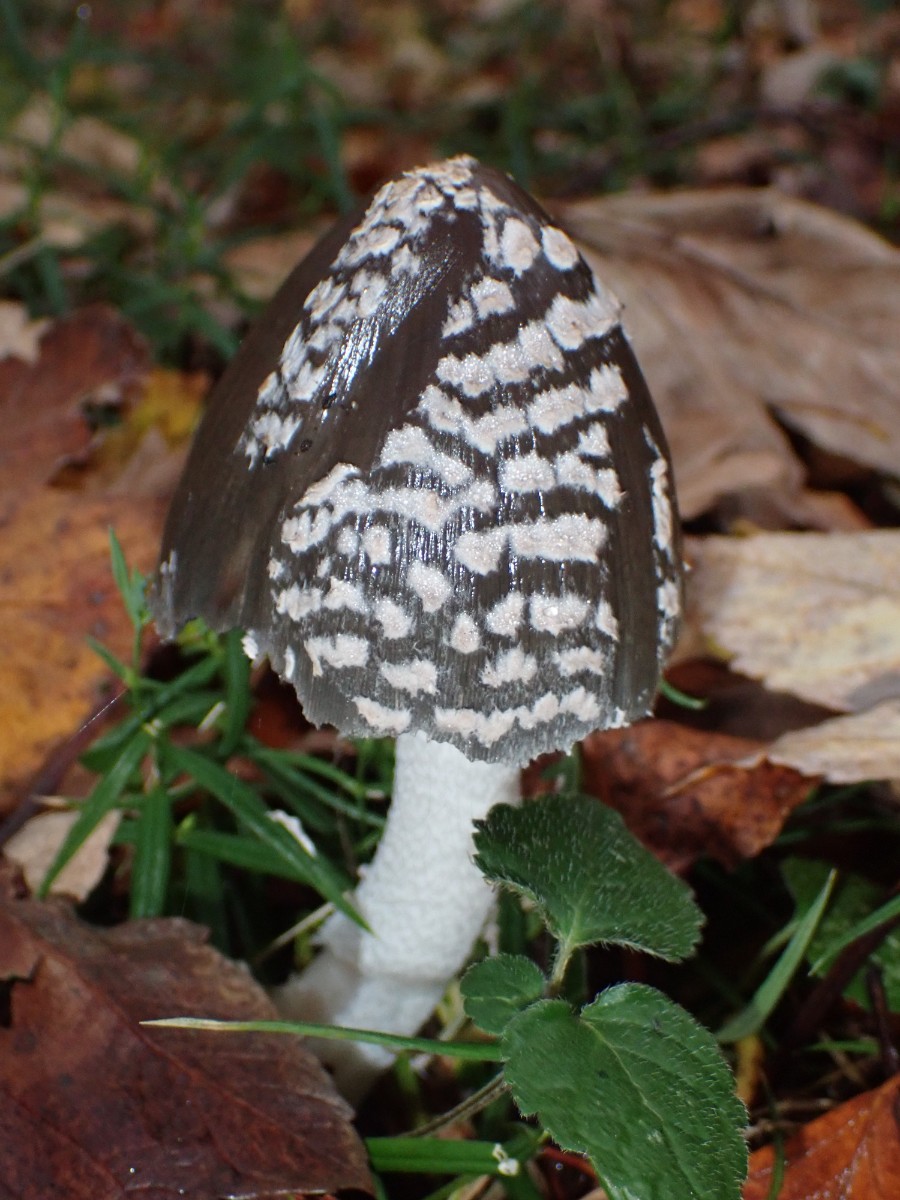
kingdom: Fungi
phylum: Basidiomycota
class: Agaricomycetes
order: Agaricales
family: Psathyrellaceae
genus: Coprinopsis
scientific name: Coprinopsis picacea
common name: skade-blækhat
